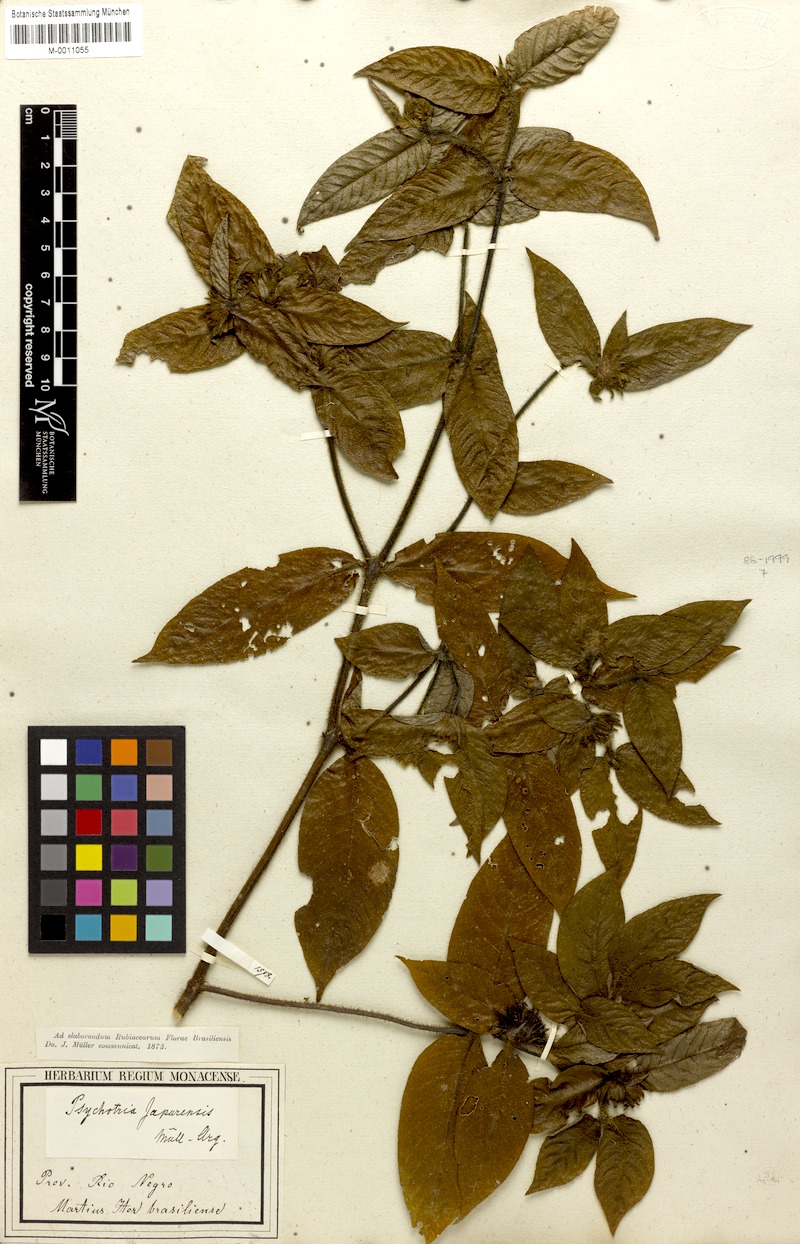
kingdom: Plantae
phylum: Tracheophyta
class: Magnoliopsida
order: Gentianales
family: Rubiaceae
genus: Palicourea
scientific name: Palicourea iodotricha
